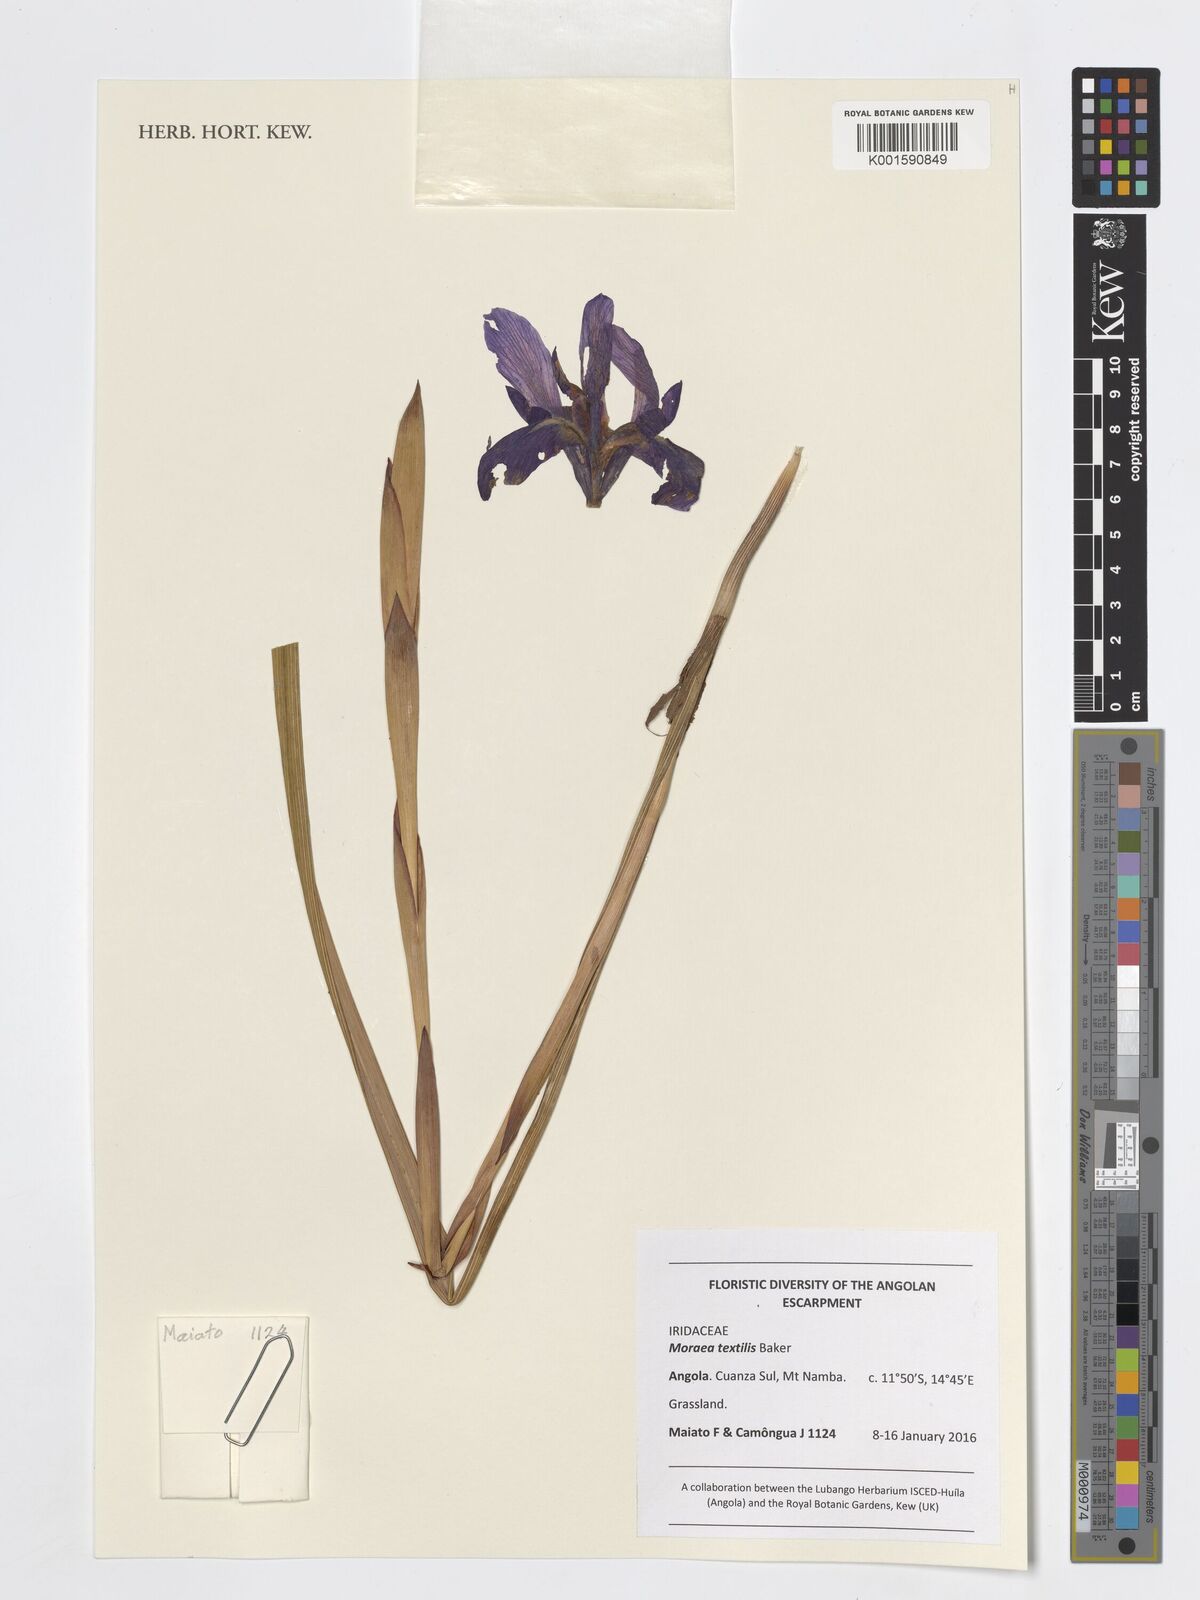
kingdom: Plantae
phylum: Tracheophyta
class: Liliopsida
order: Asparagales
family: Iridaceae
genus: Moraea
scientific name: Moraea textilis
